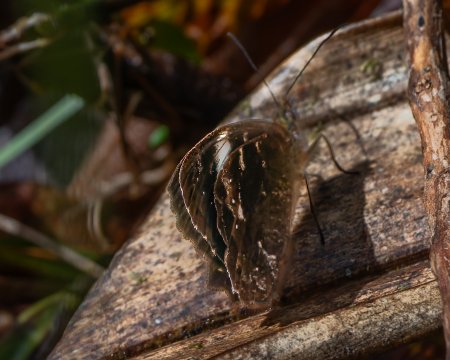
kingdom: Animalia
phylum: Arthropoda
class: Insecta
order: Lepidoptera
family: Nymphalidae
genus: Pedaliodes
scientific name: Pedaliodes peucestas
